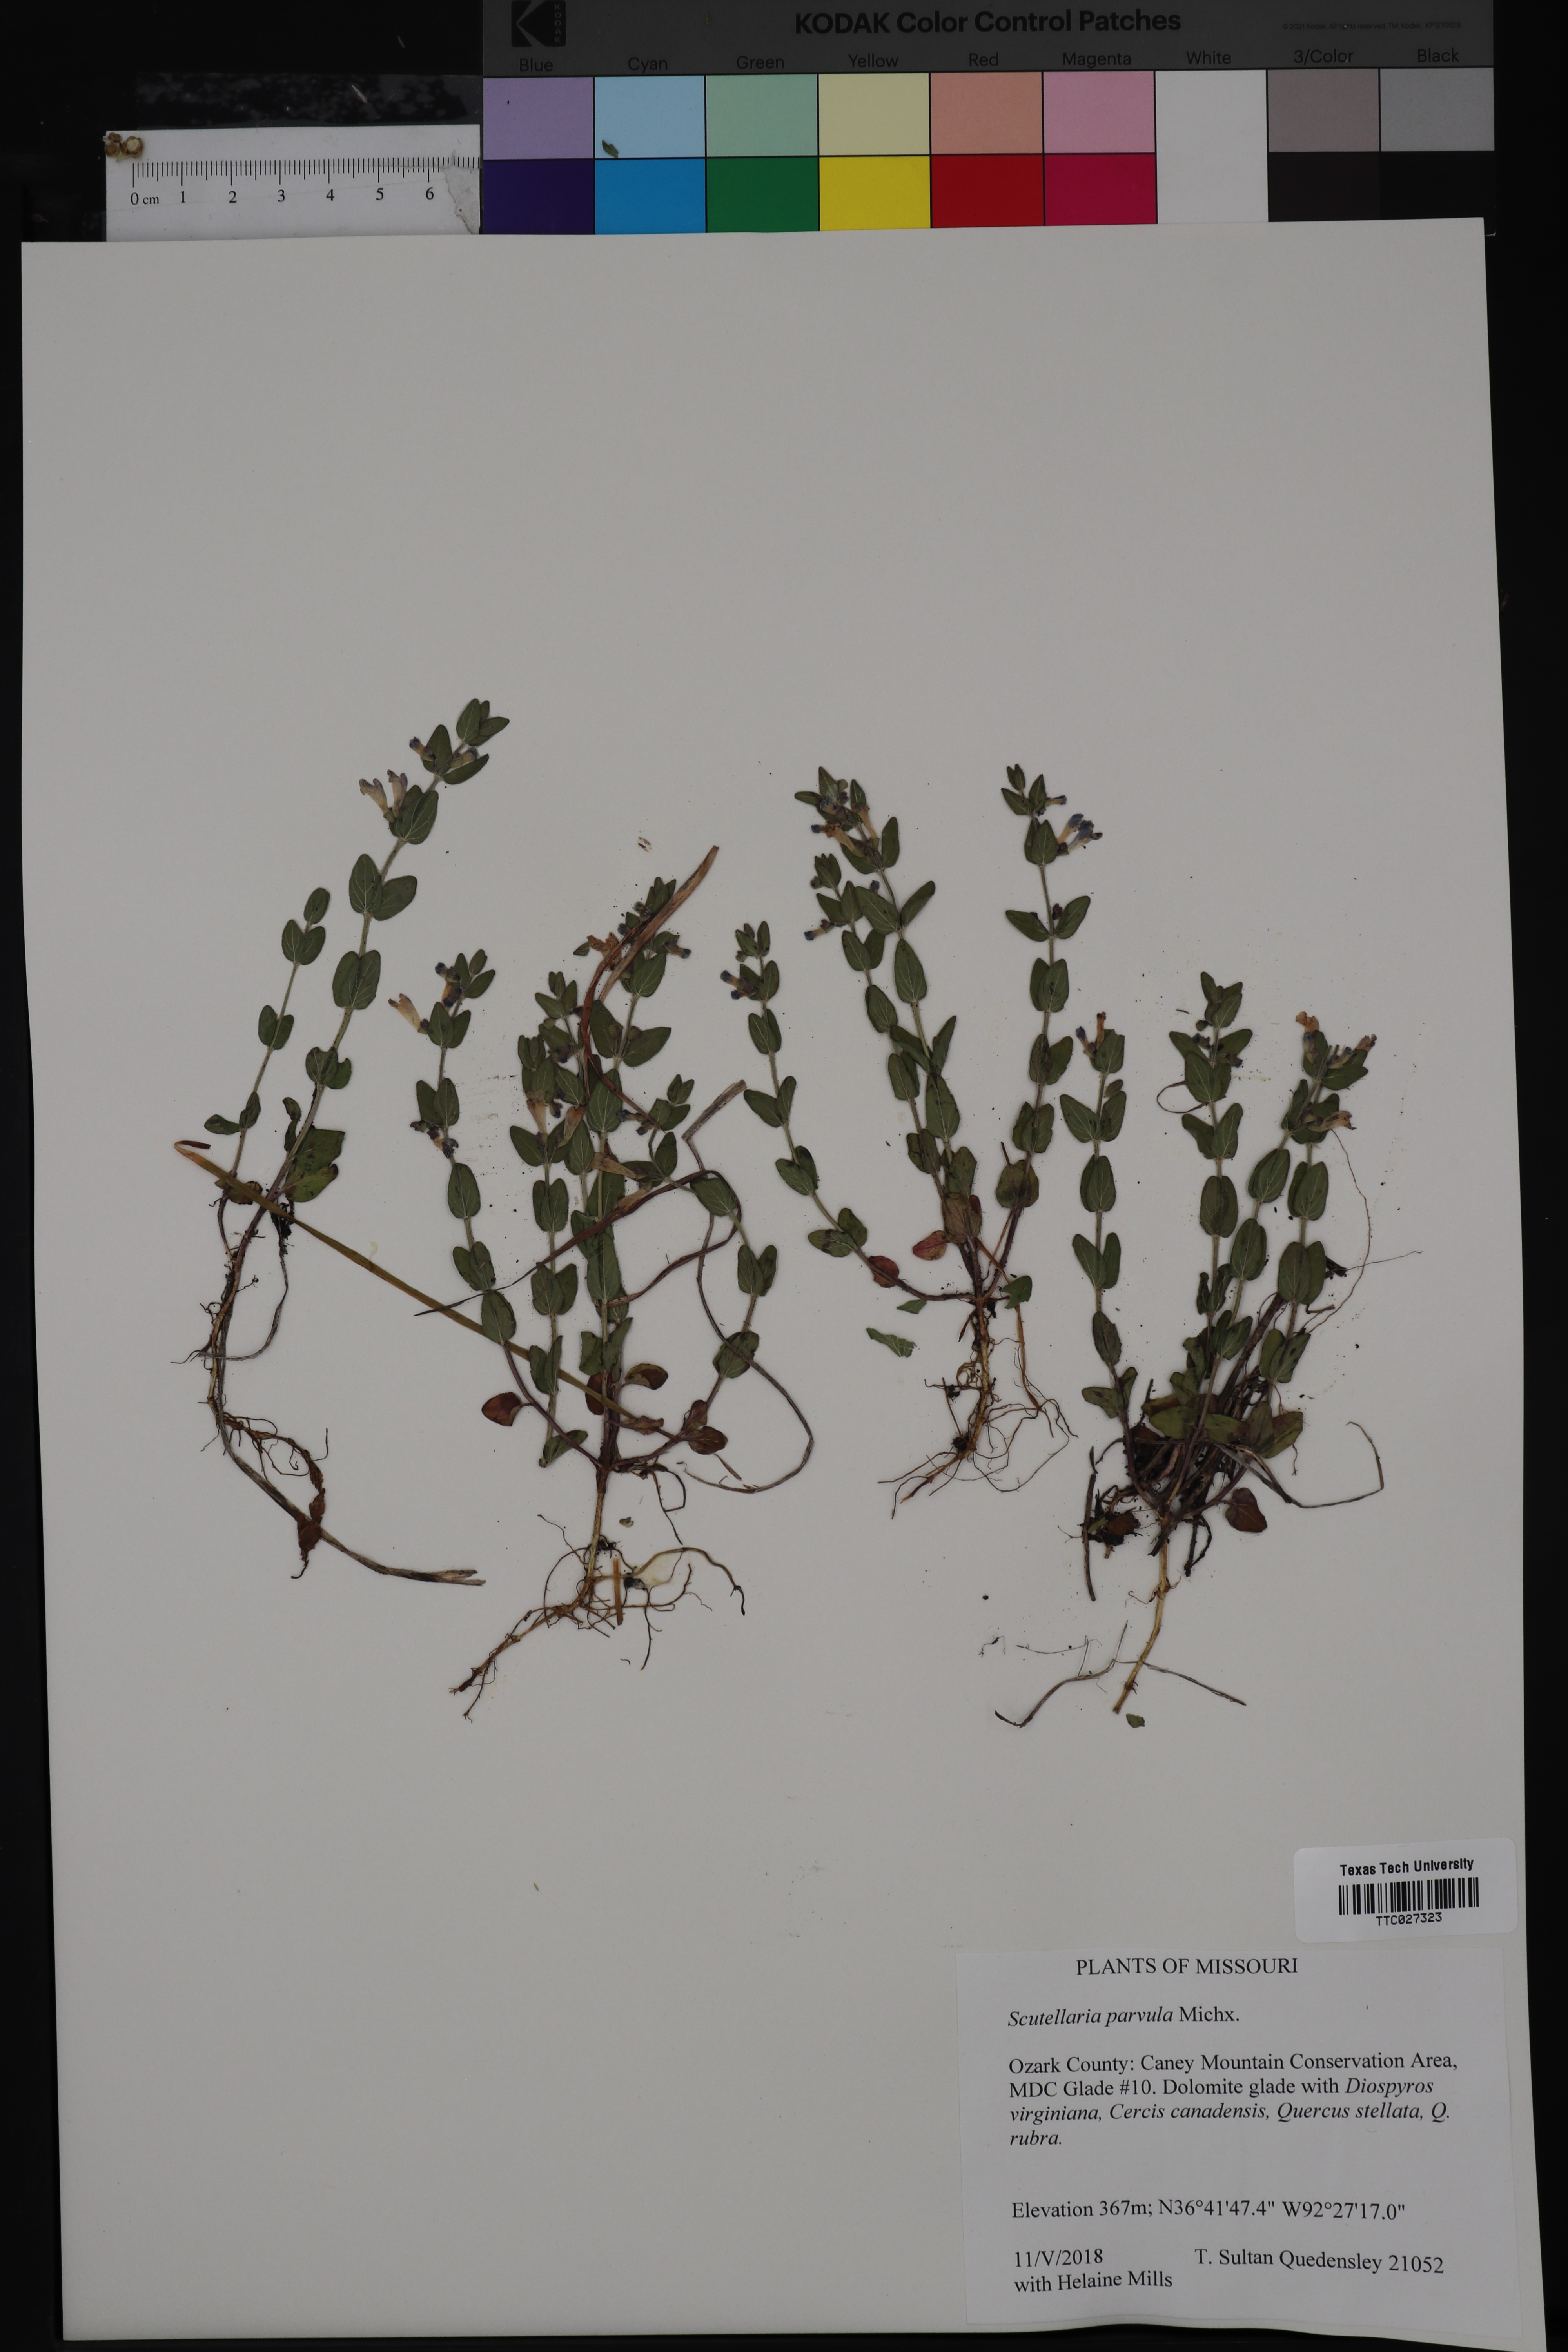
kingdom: Plantae
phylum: Tracheophyta
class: Magnoliopsida
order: Lamiales
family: Lamiaceae
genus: Scutellaria
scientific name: Scutellaria parvula
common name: Little scullcap
